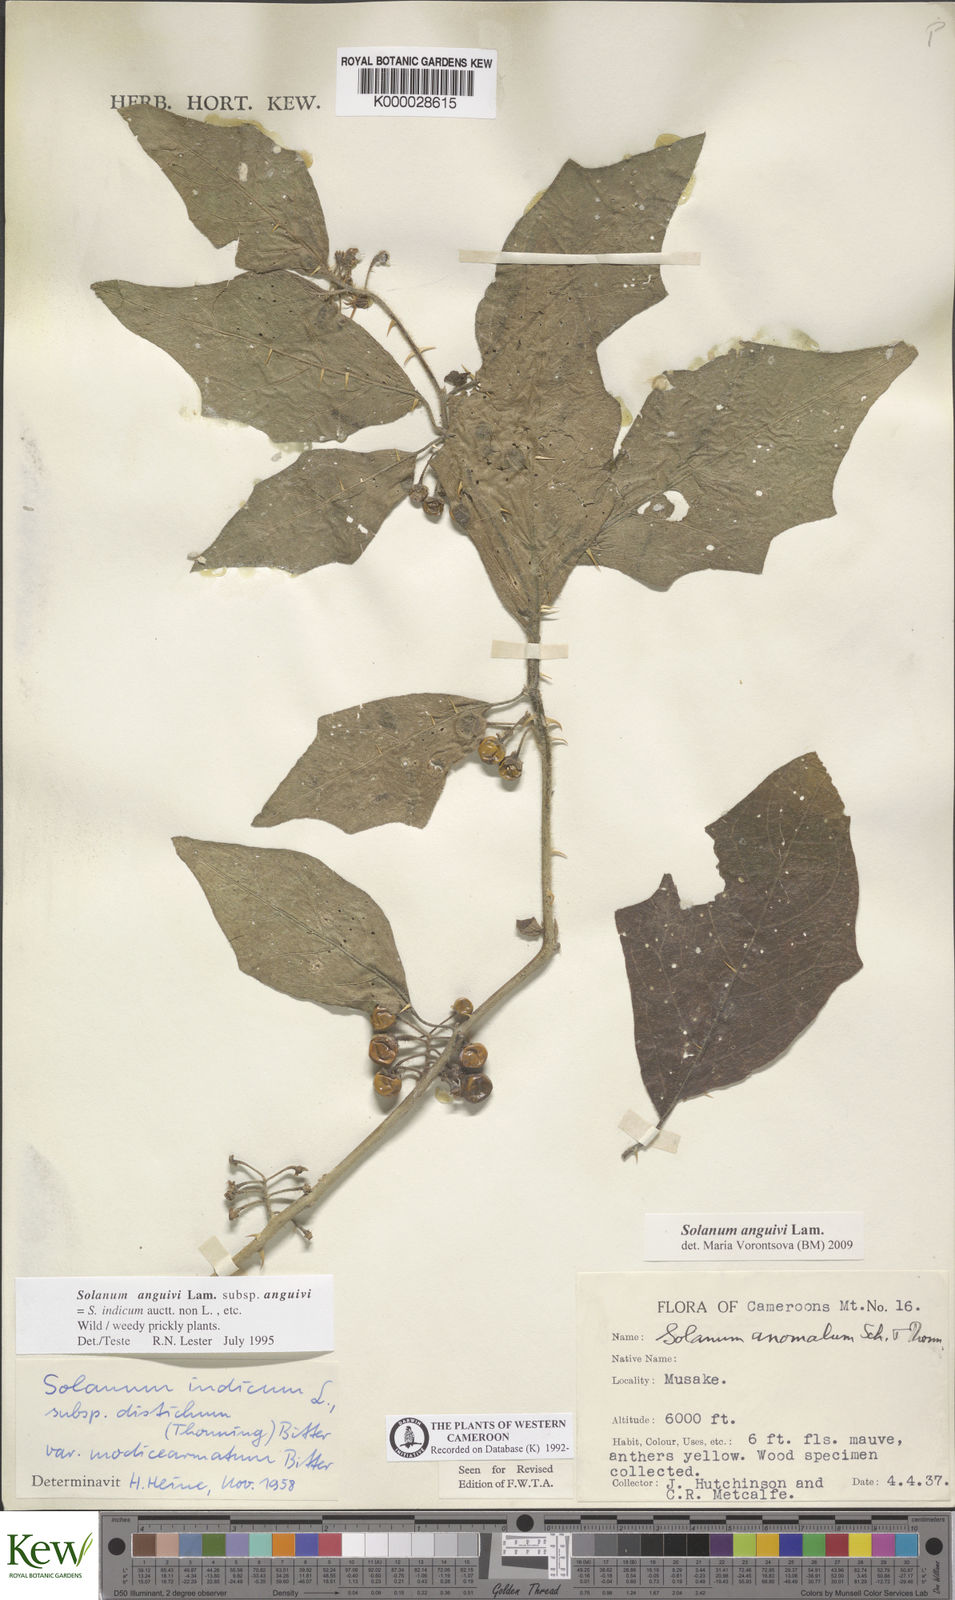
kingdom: Plantae
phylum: Tracheophyta
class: Magnoliopsida
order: Solanales
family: Solanaceae
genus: Solanum
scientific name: Solanum anguivi
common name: Forest bitterberry
